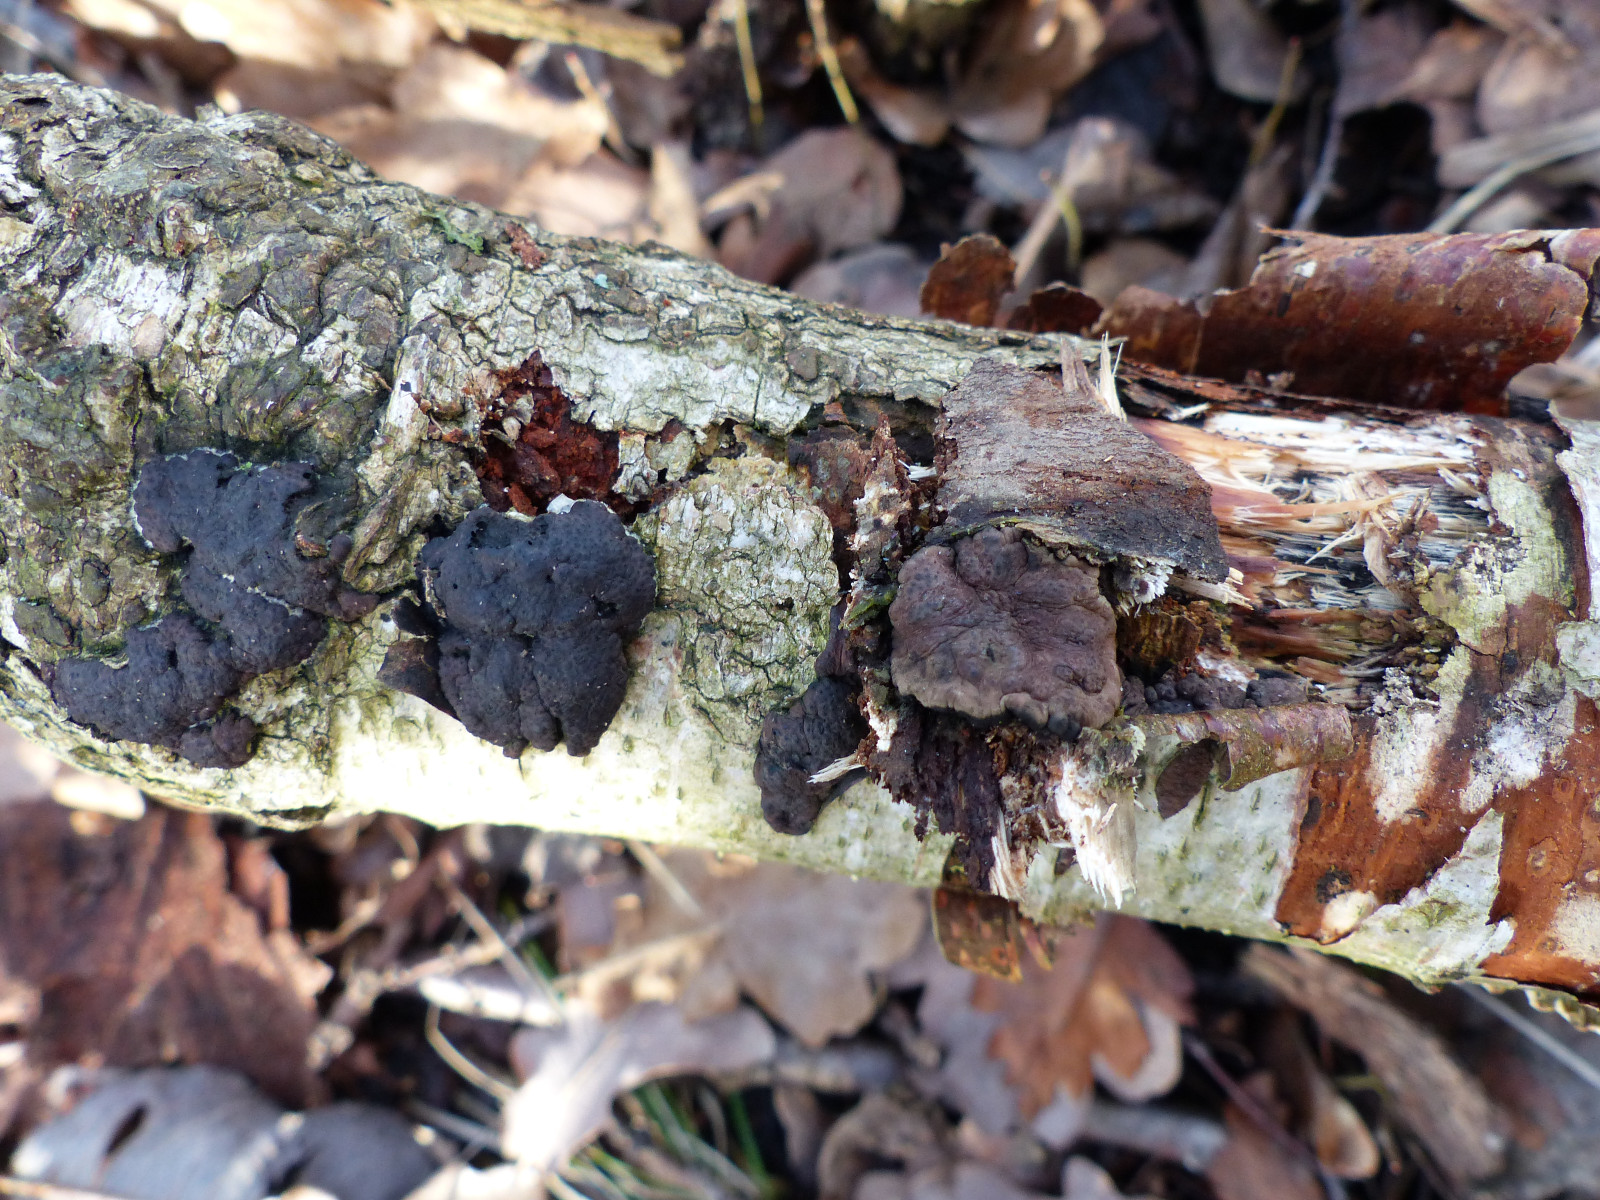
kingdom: Fungi
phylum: Ascomycota
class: Sordariomycetes
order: Xylariales
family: Hypoxylaceae
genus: Jackrogersella
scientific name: Jackrogersella multiformis
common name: foranderlig kulbær
